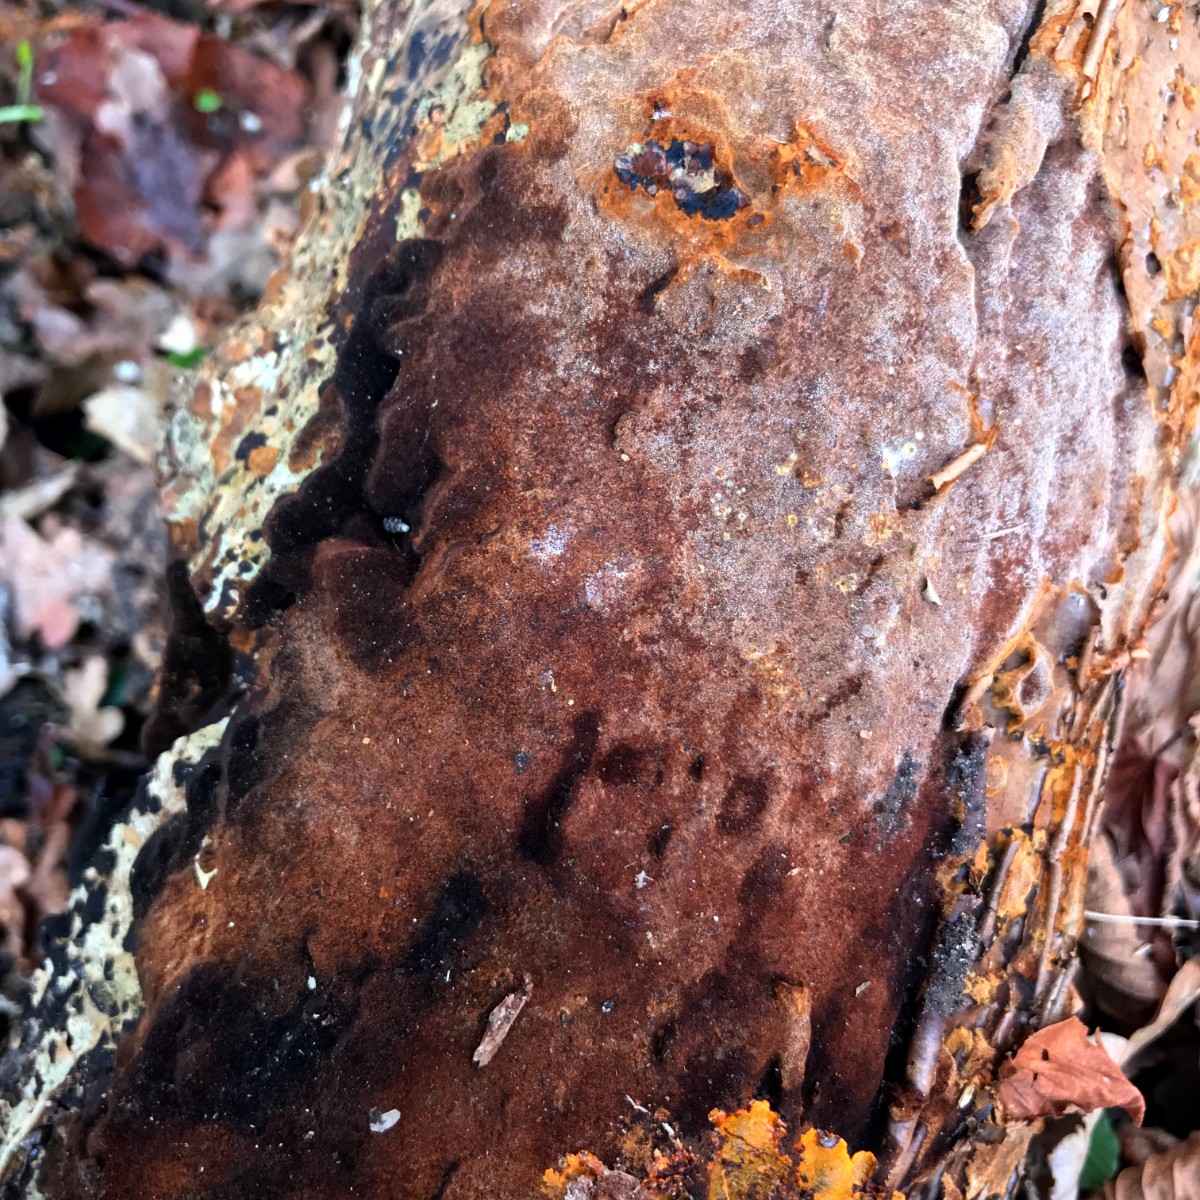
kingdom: Fungi
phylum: Basidiomycota
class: Agaricomycetes
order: Hymenochaetales
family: Hymenochaetaceae
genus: Fuscoporia
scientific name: Fuscoporia ferrea
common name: skorpe-ildporesvamp
